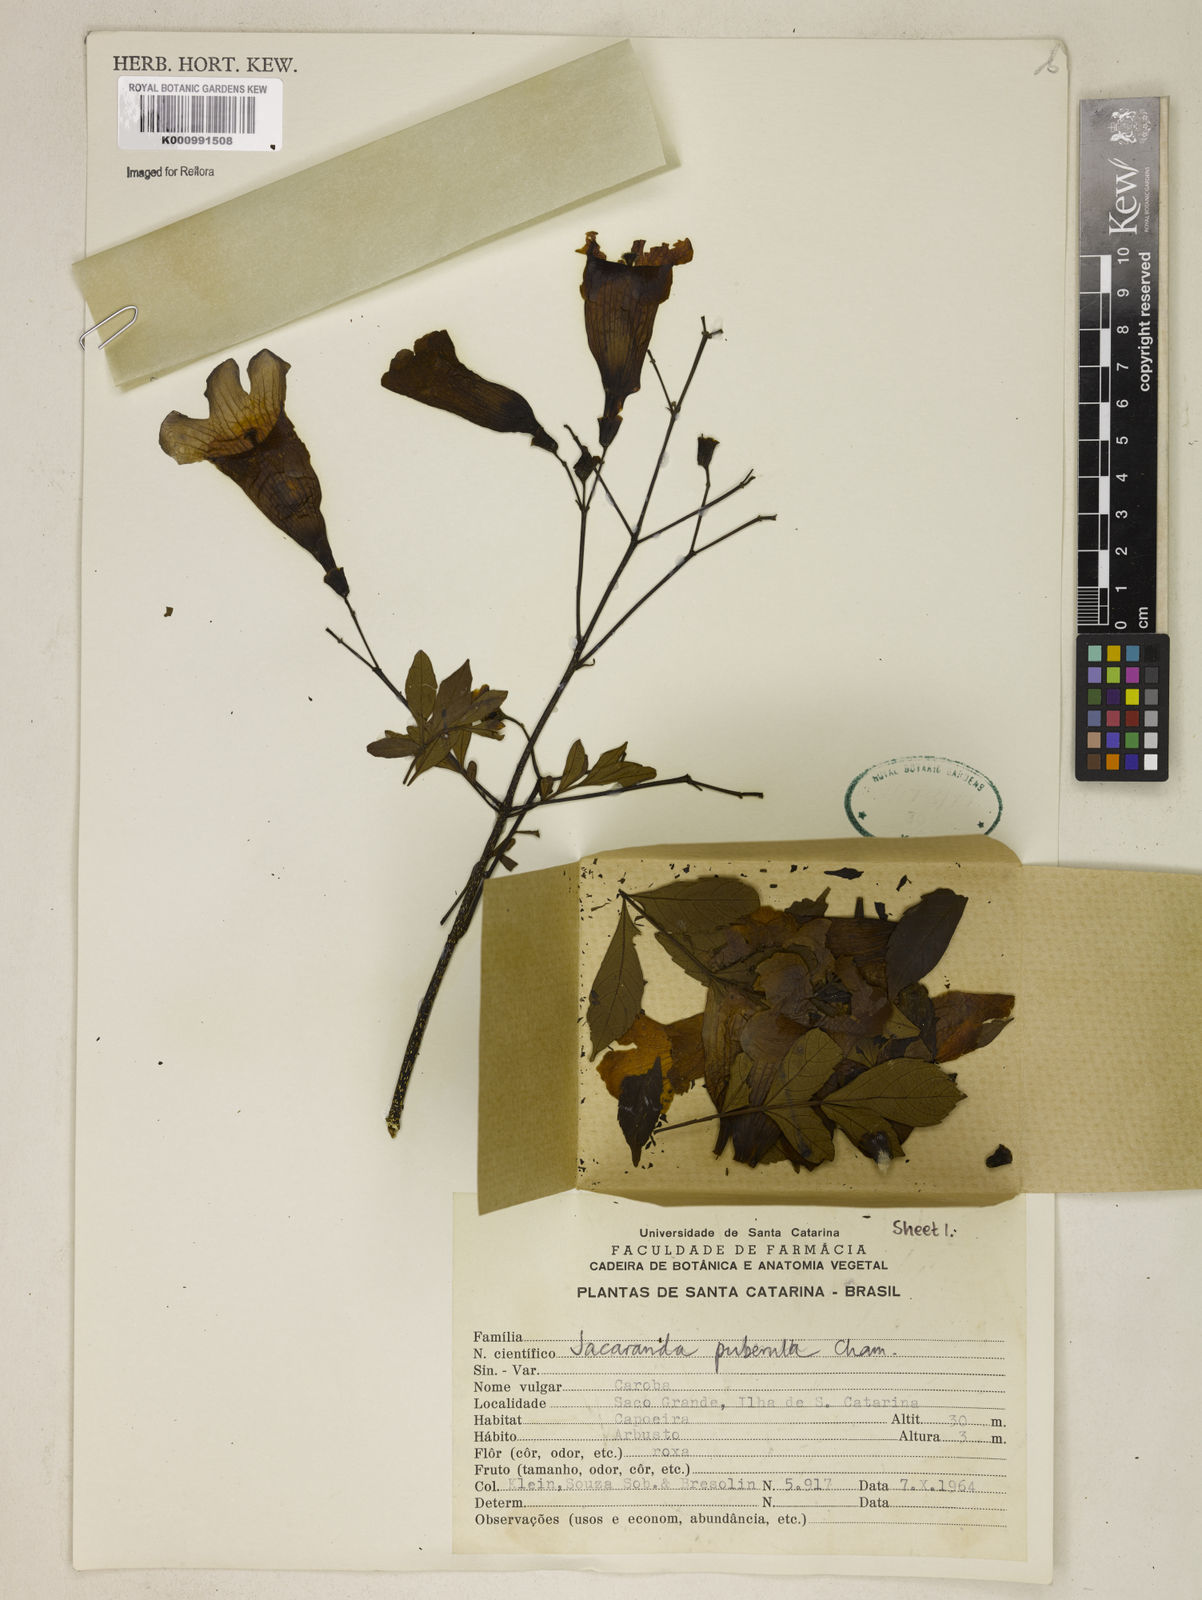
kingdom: Plantae
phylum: Tracheophyta
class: Magnoliopsida
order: Lamiales
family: Bignoniaceae
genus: Jacaranda
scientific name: Jacaranda puberula
